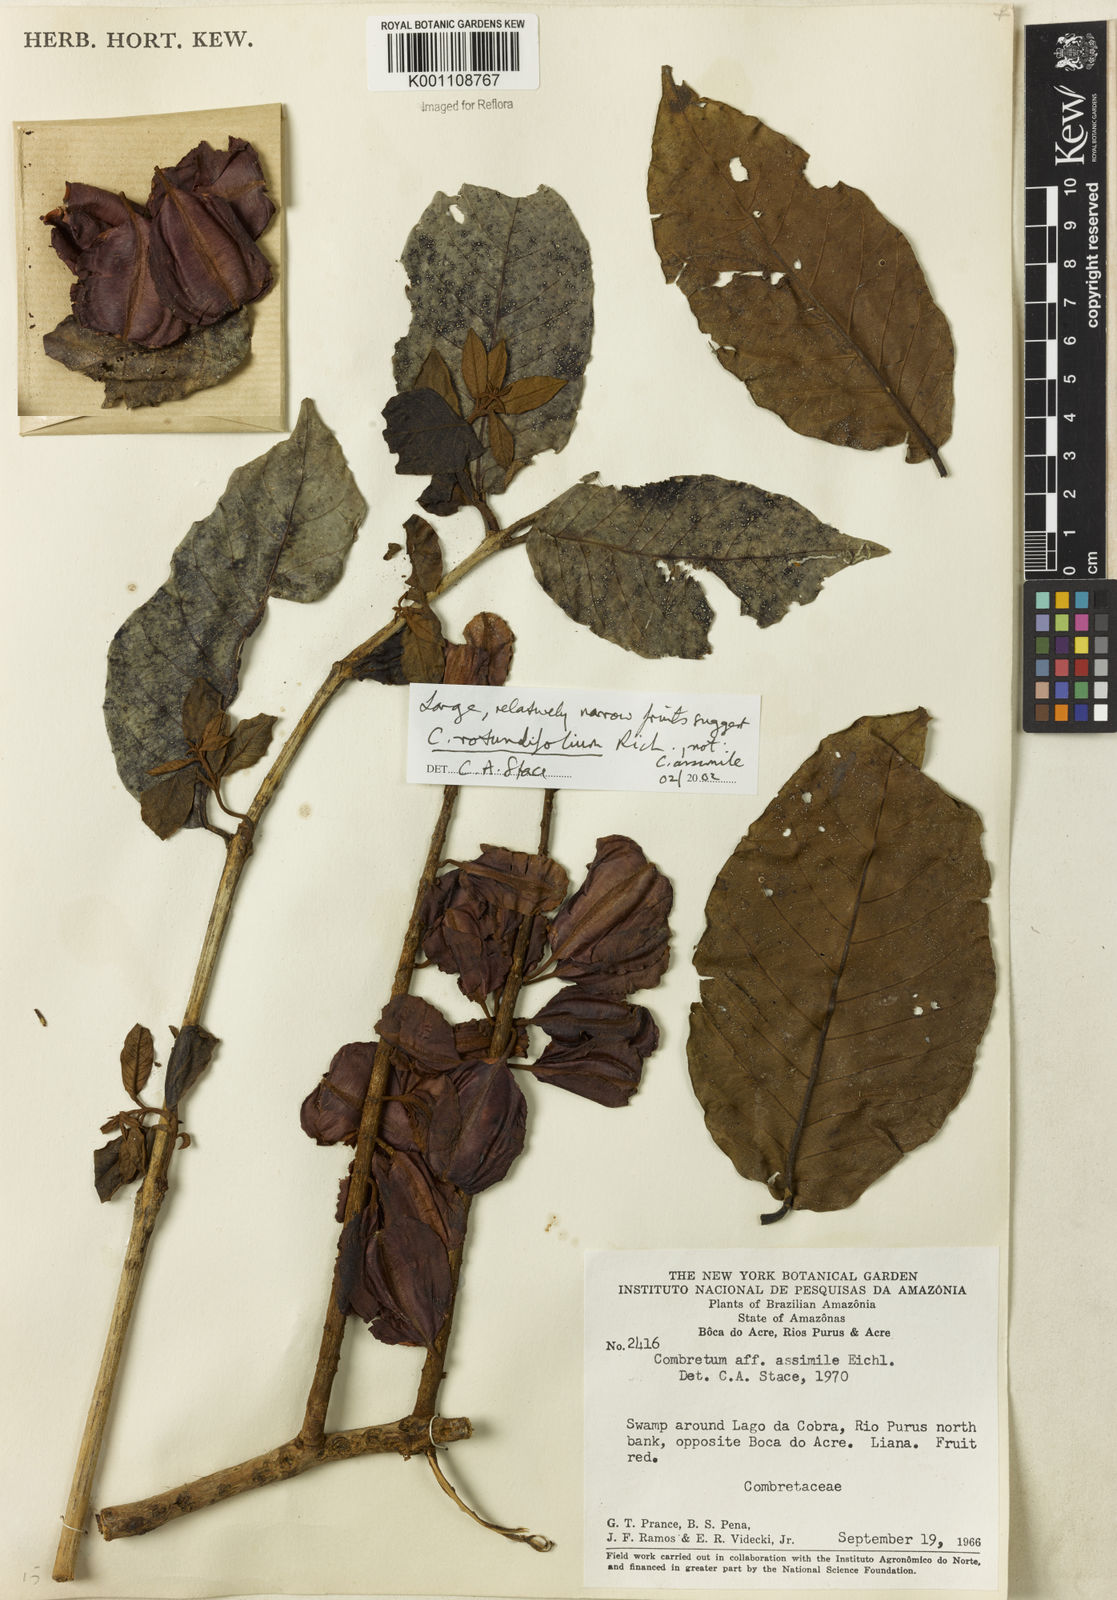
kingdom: Plantae
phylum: Tracheophyta
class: Magnoliopsida
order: Myrtales
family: Combretaceae
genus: Combretum
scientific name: Combretum rotundifolium
